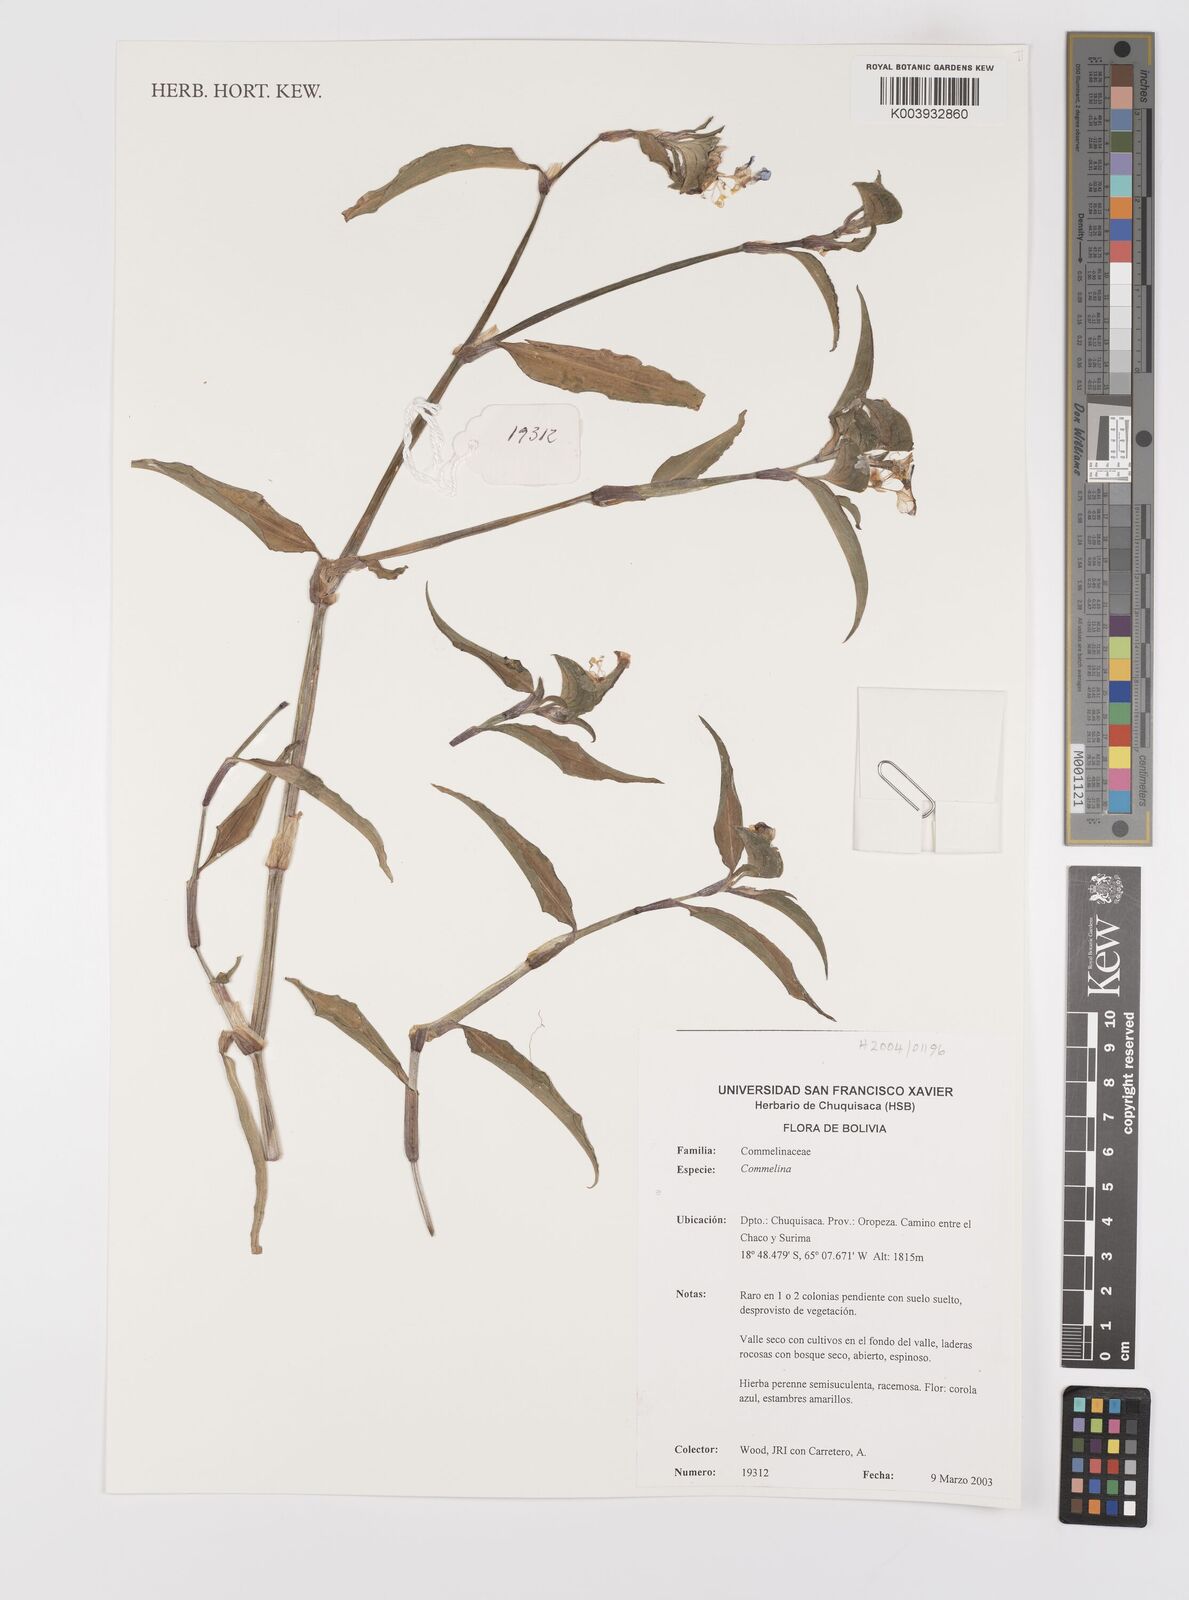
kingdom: Plantae
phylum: Tracheophyta
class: Liliopsida
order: Commelinales
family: Commelinaceae
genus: Commelina
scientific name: Commelina
